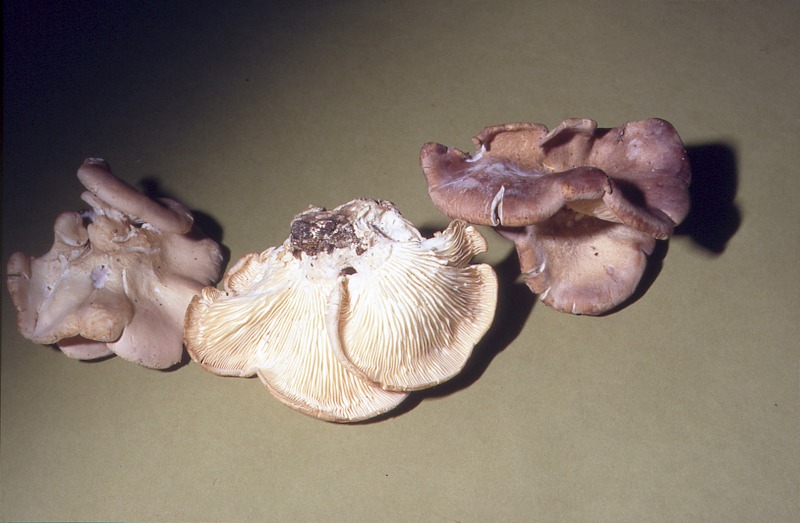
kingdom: Plantae
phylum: Tracheophyta
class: Magnoliopsida
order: Fagales
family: Fagaceae
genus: Fagus
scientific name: Fagus sylvatica
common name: Beech
